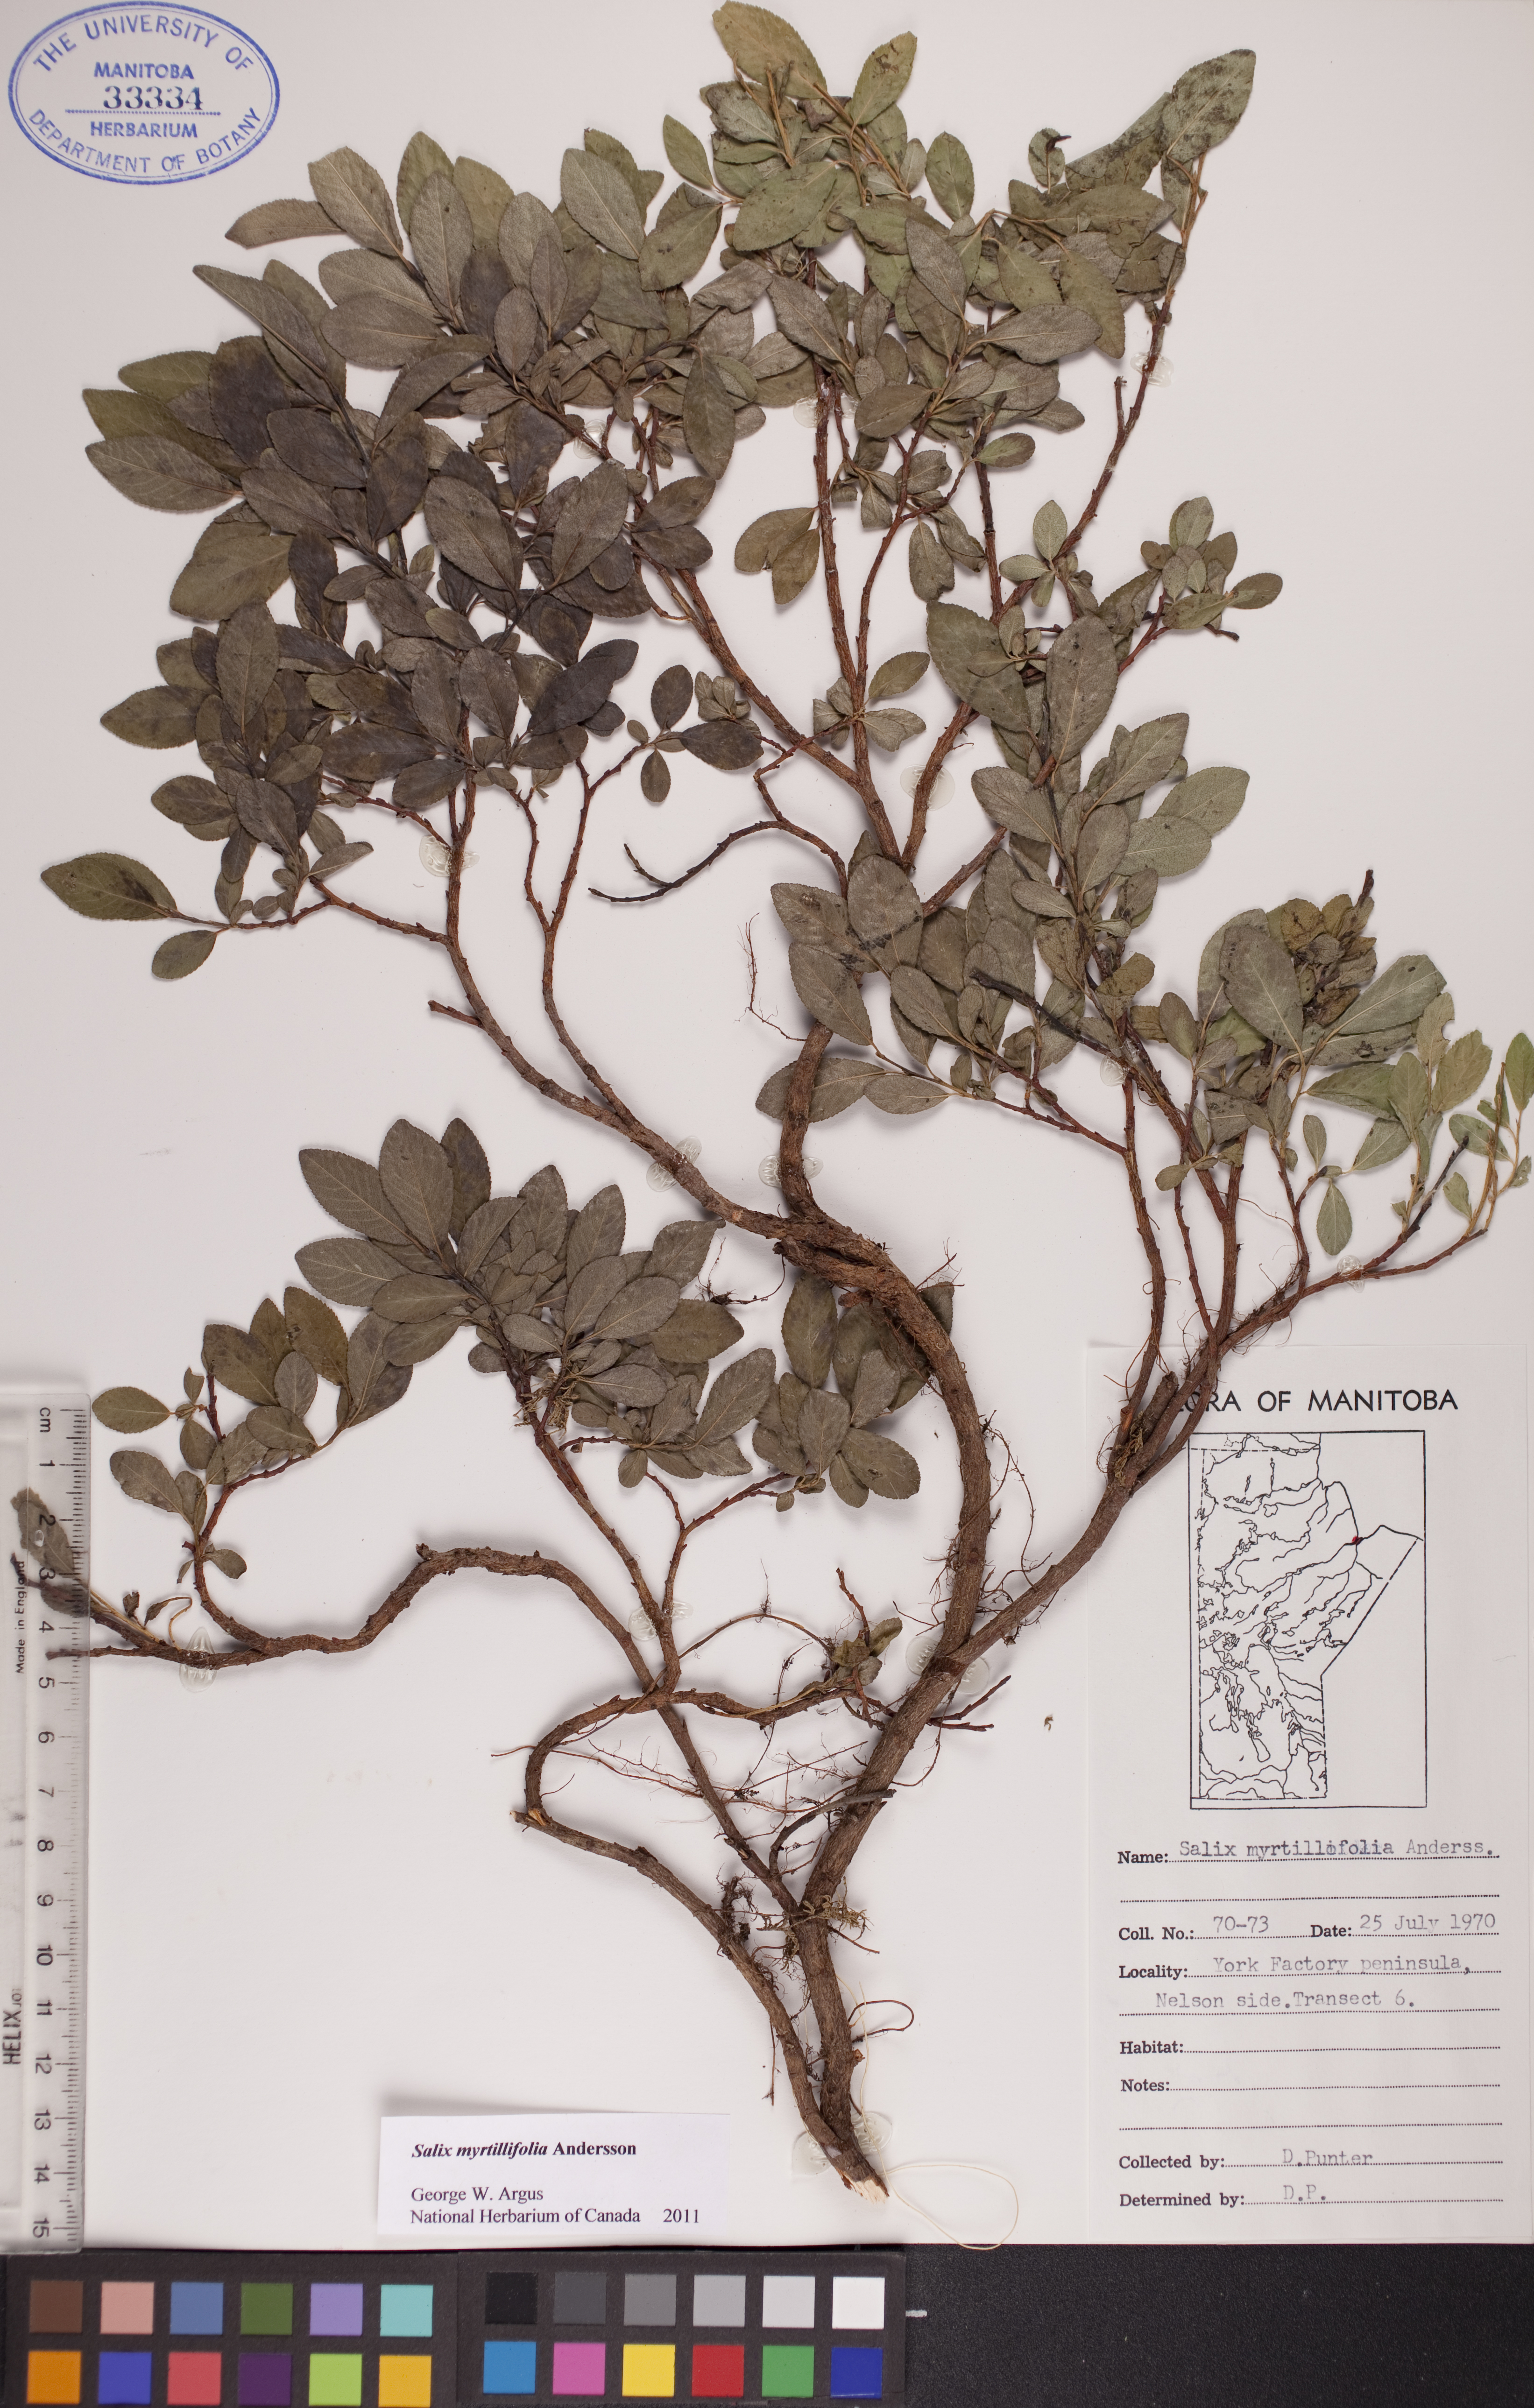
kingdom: Plantae
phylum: Tracheophyta
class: Magnoliopsida
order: Malpighiales
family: Salicaceae
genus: Salix
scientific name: Salix myrtillifolia
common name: Bilberry willow
